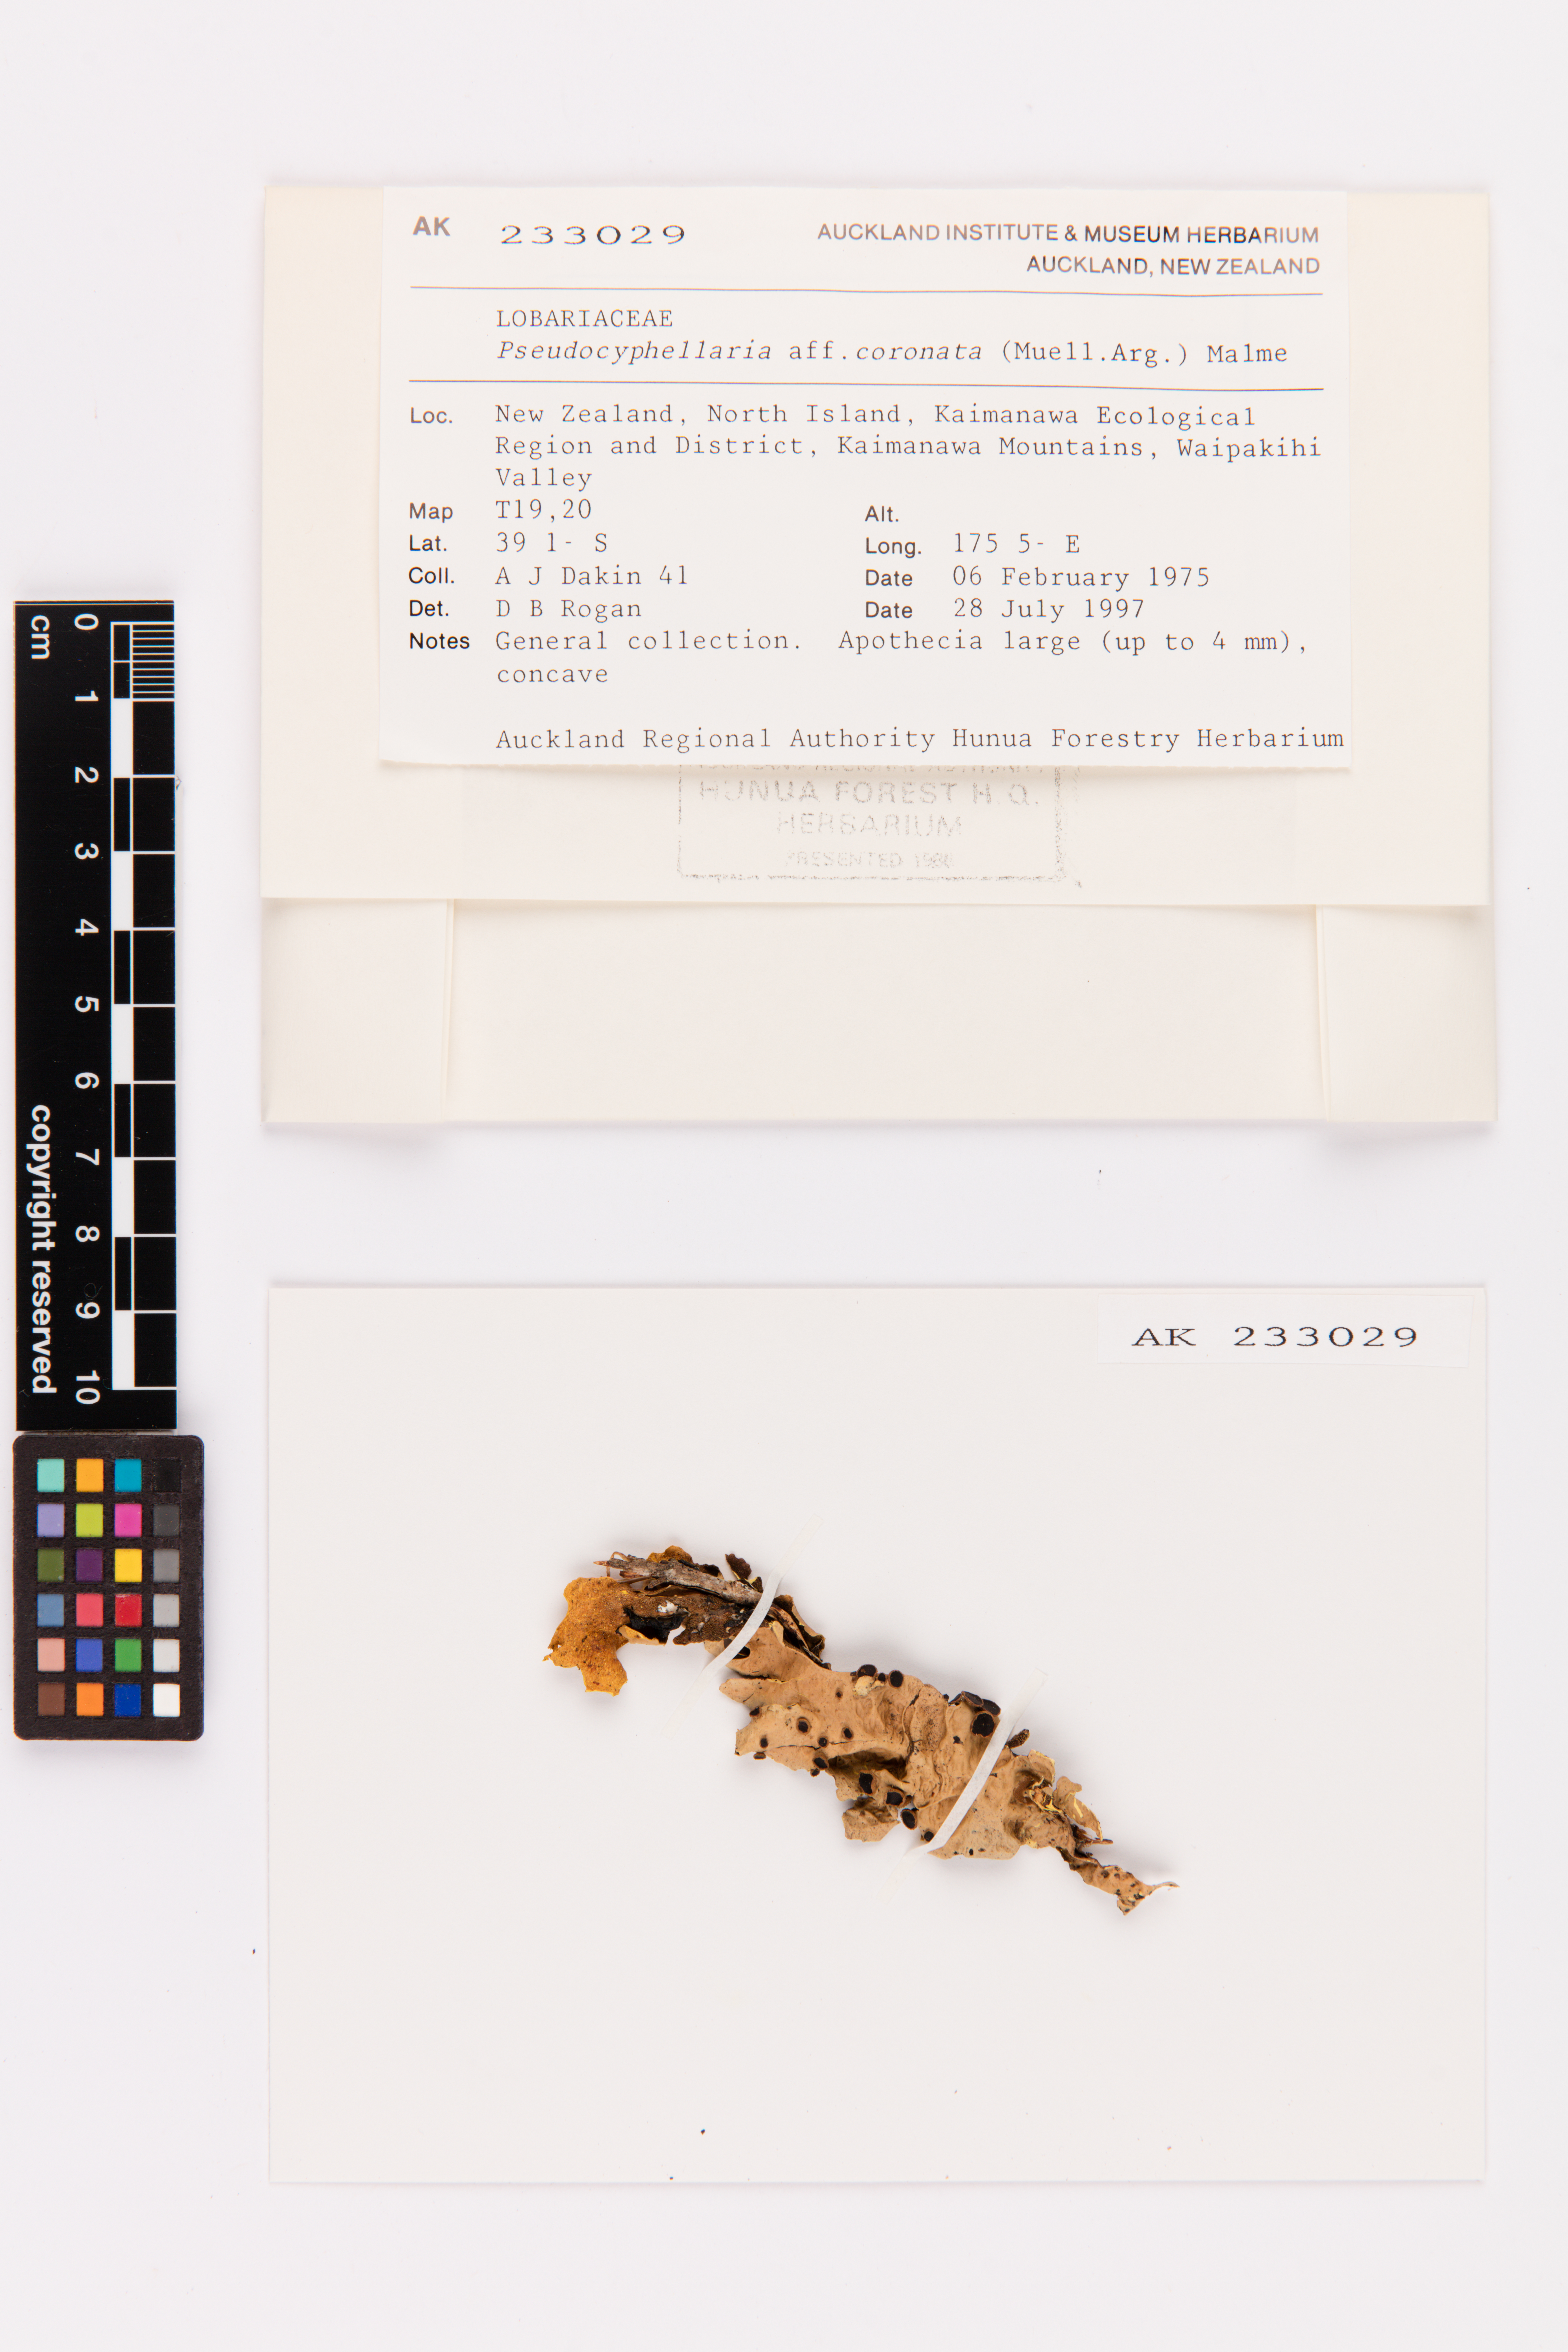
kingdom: Fungi
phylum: Ascomycota
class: Lecanoromycetes
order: Peltigerales
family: Lobariaceae
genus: Yarrumia
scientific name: Yarrumia coronata
